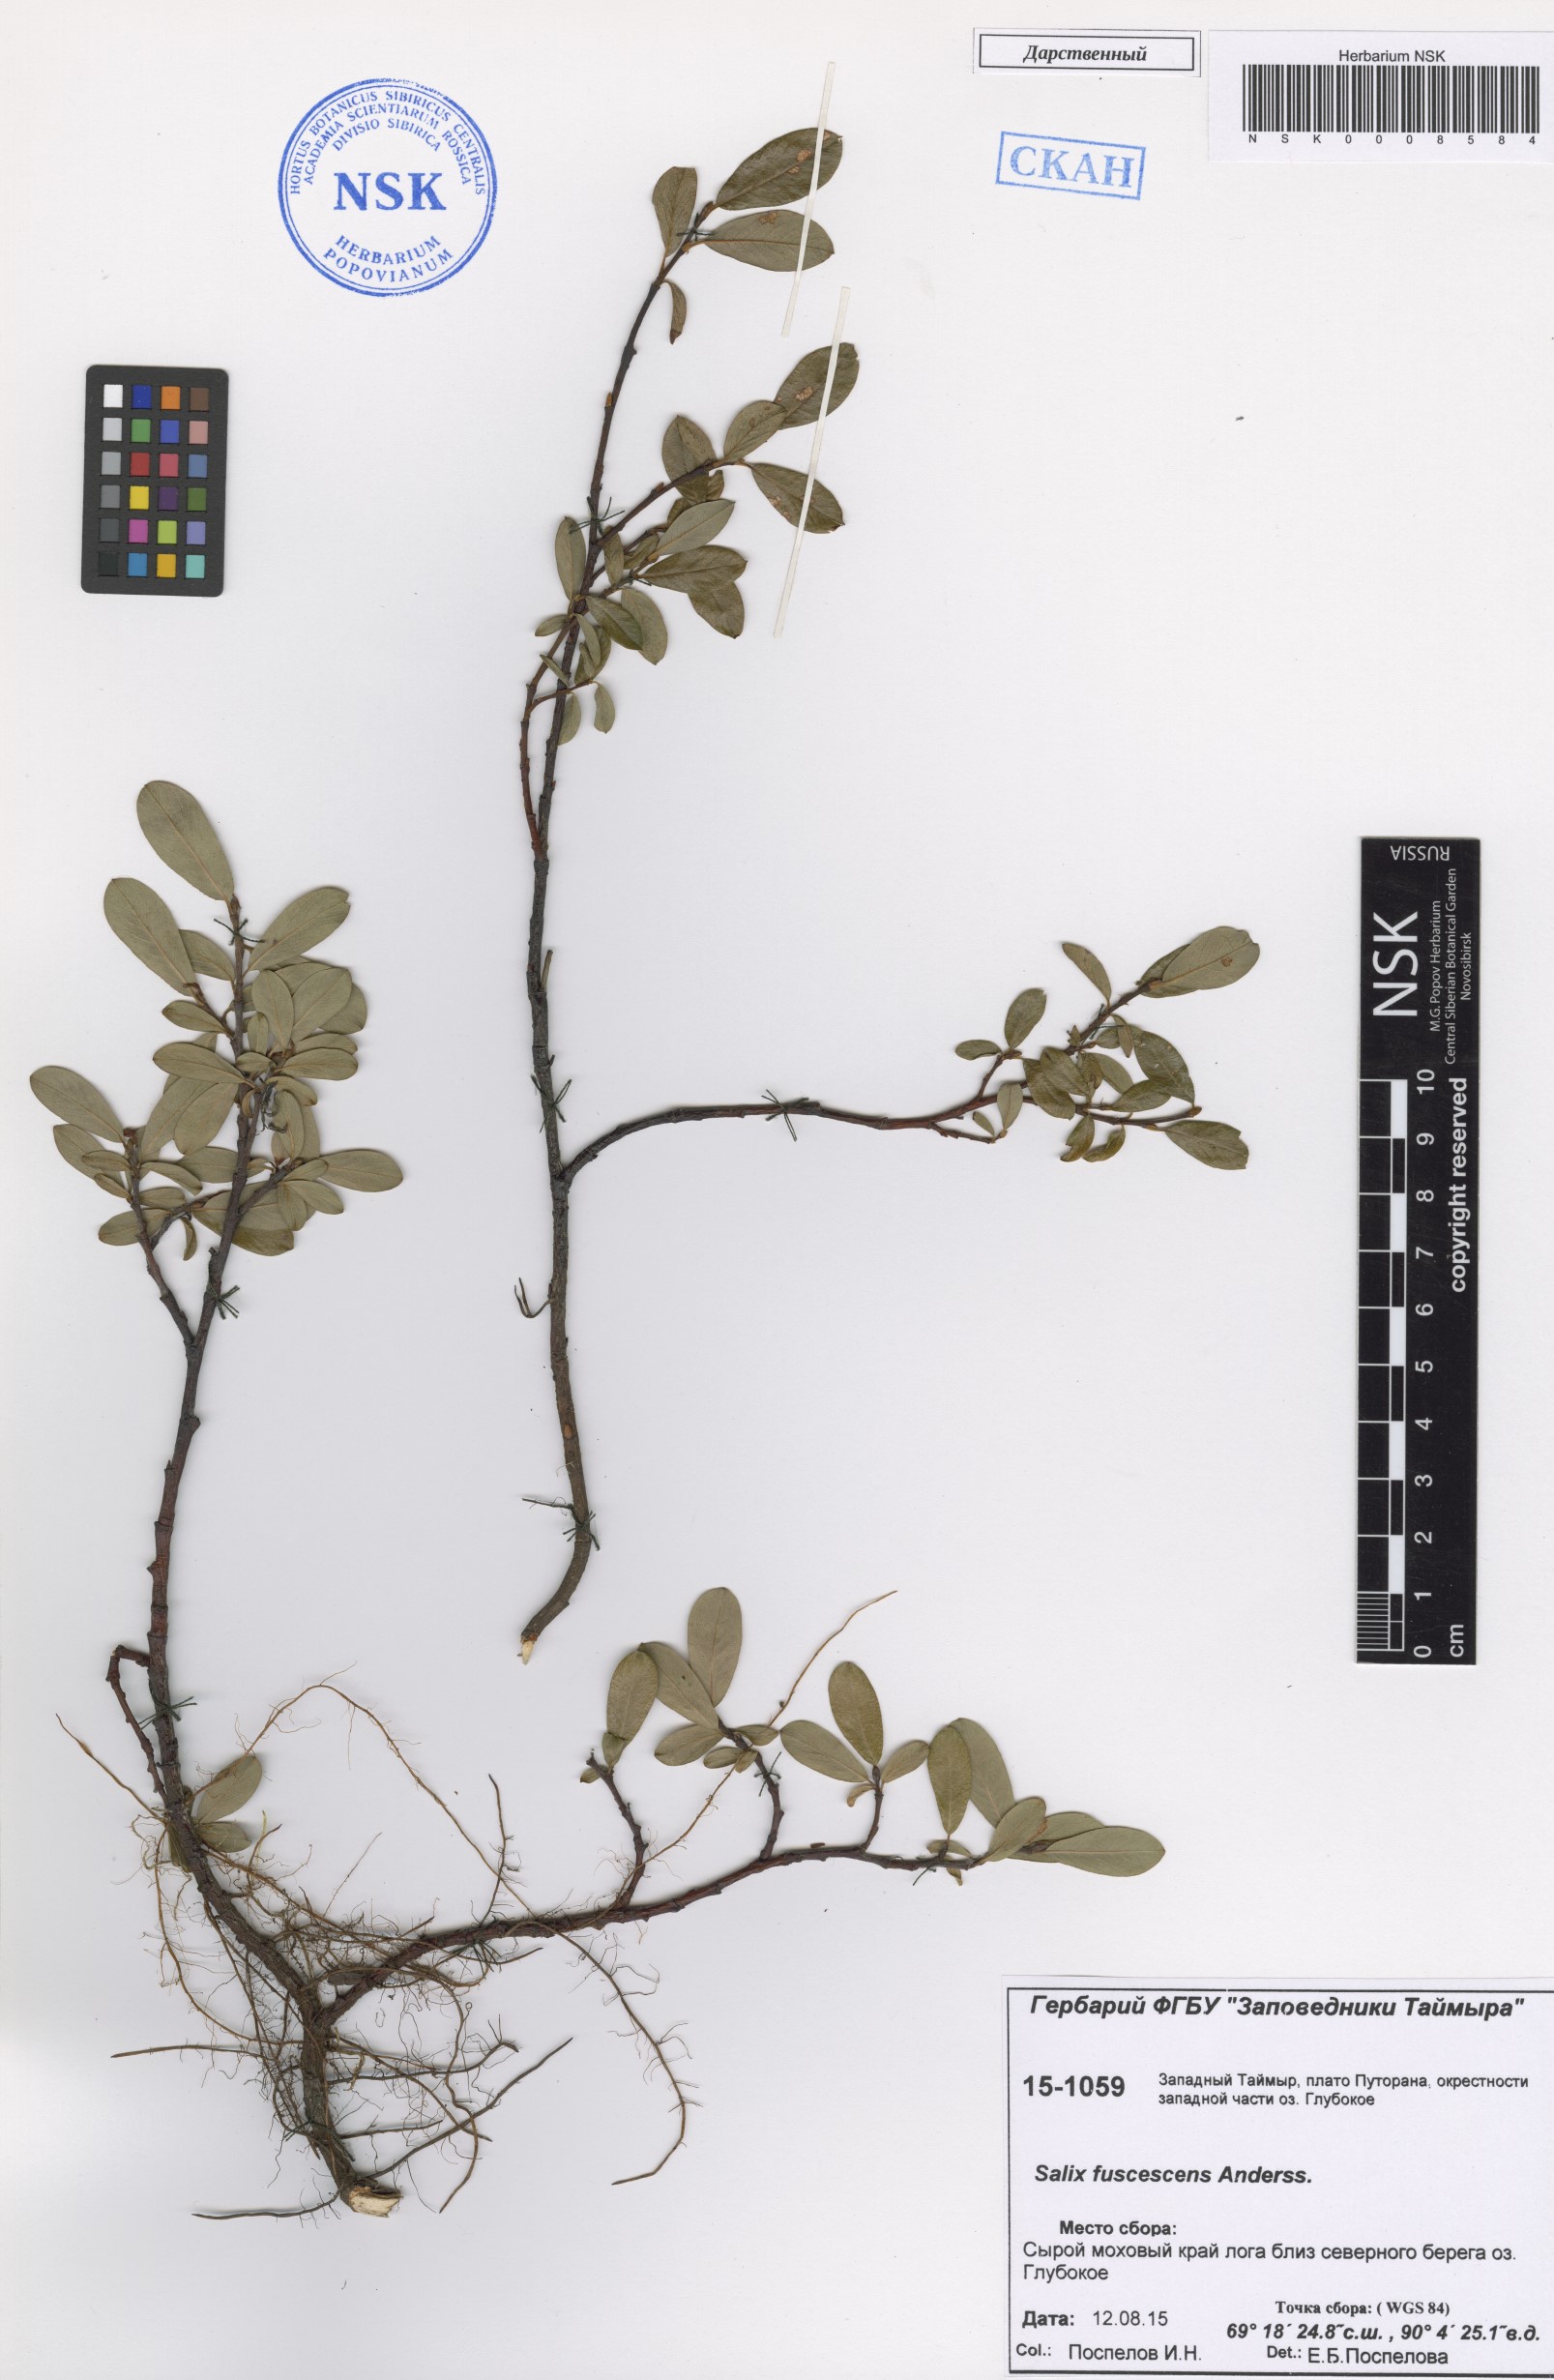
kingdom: Plantae
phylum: Tracheophyta
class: Magnoliopsida
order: Malpighiales
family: Salicaceae
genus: Salix
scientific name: Salix fuscescens
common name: Brownish willow
